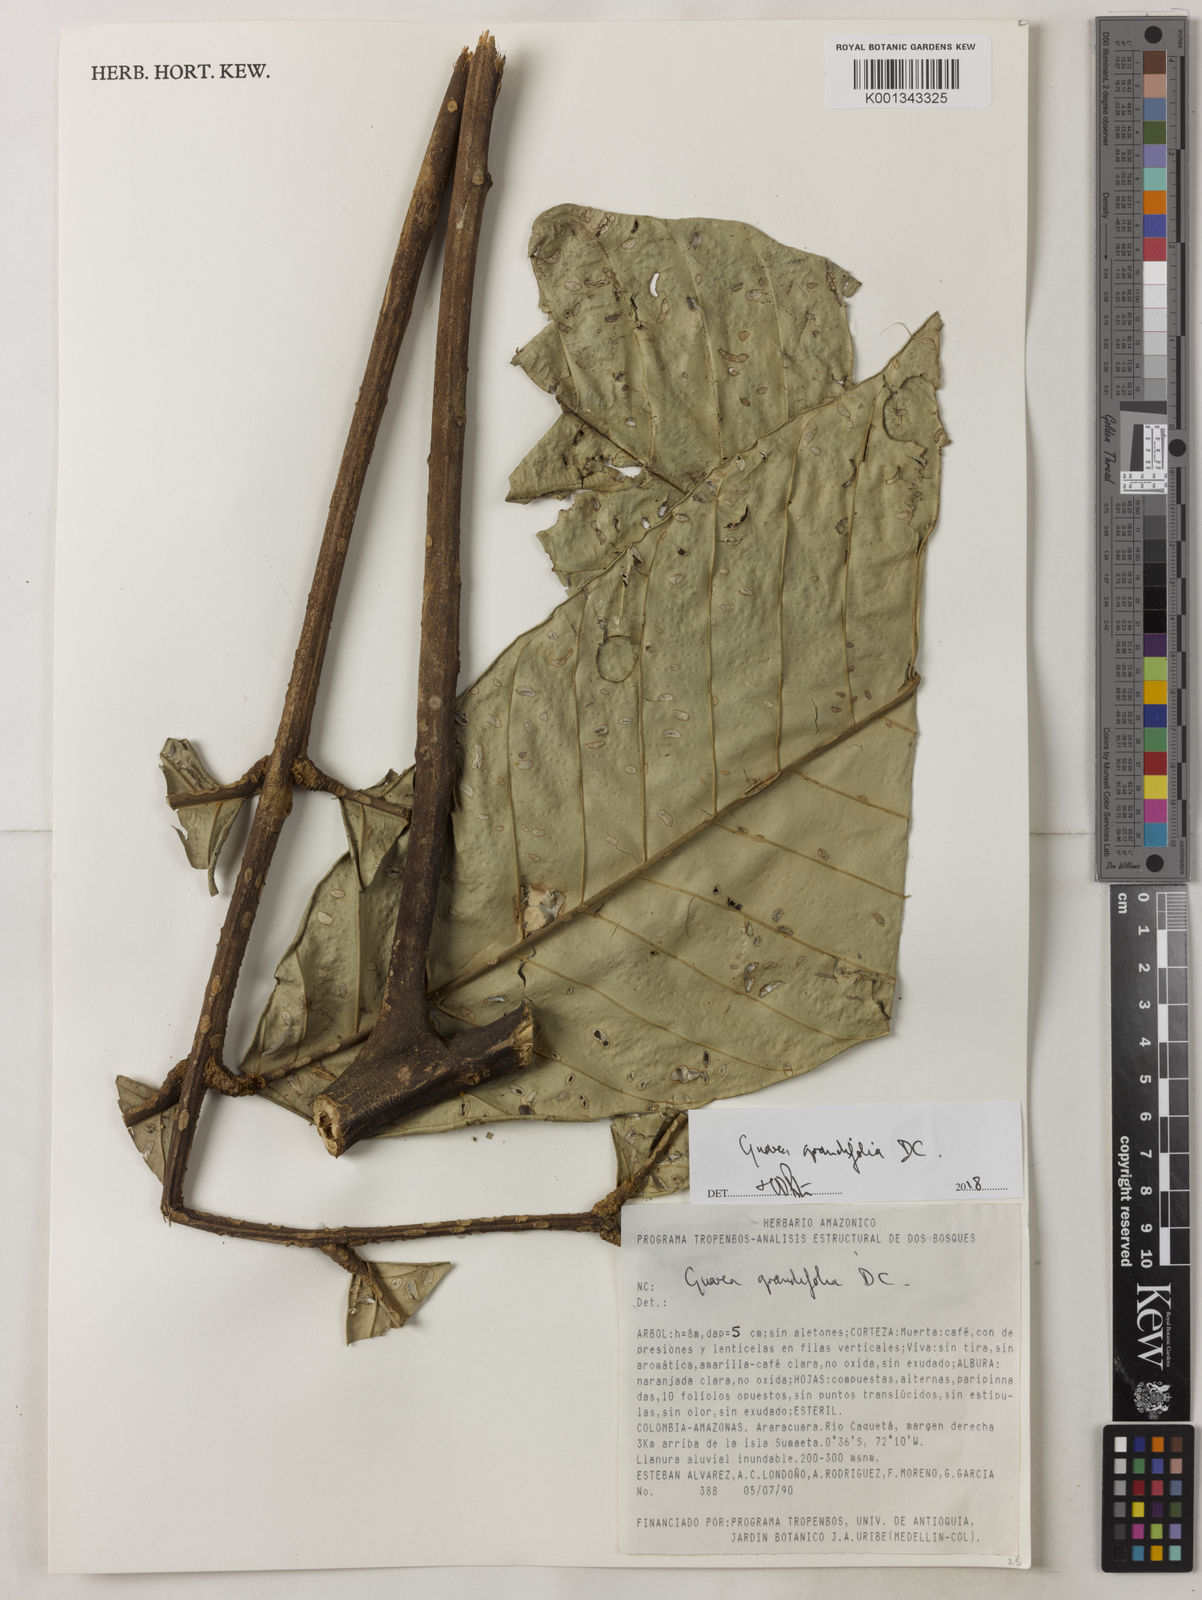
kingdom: Plantae
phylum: Tracheophyta
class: Magnoliopsida
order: Sapindales
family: Meliaceae
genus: Guarea
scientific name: Guarea
